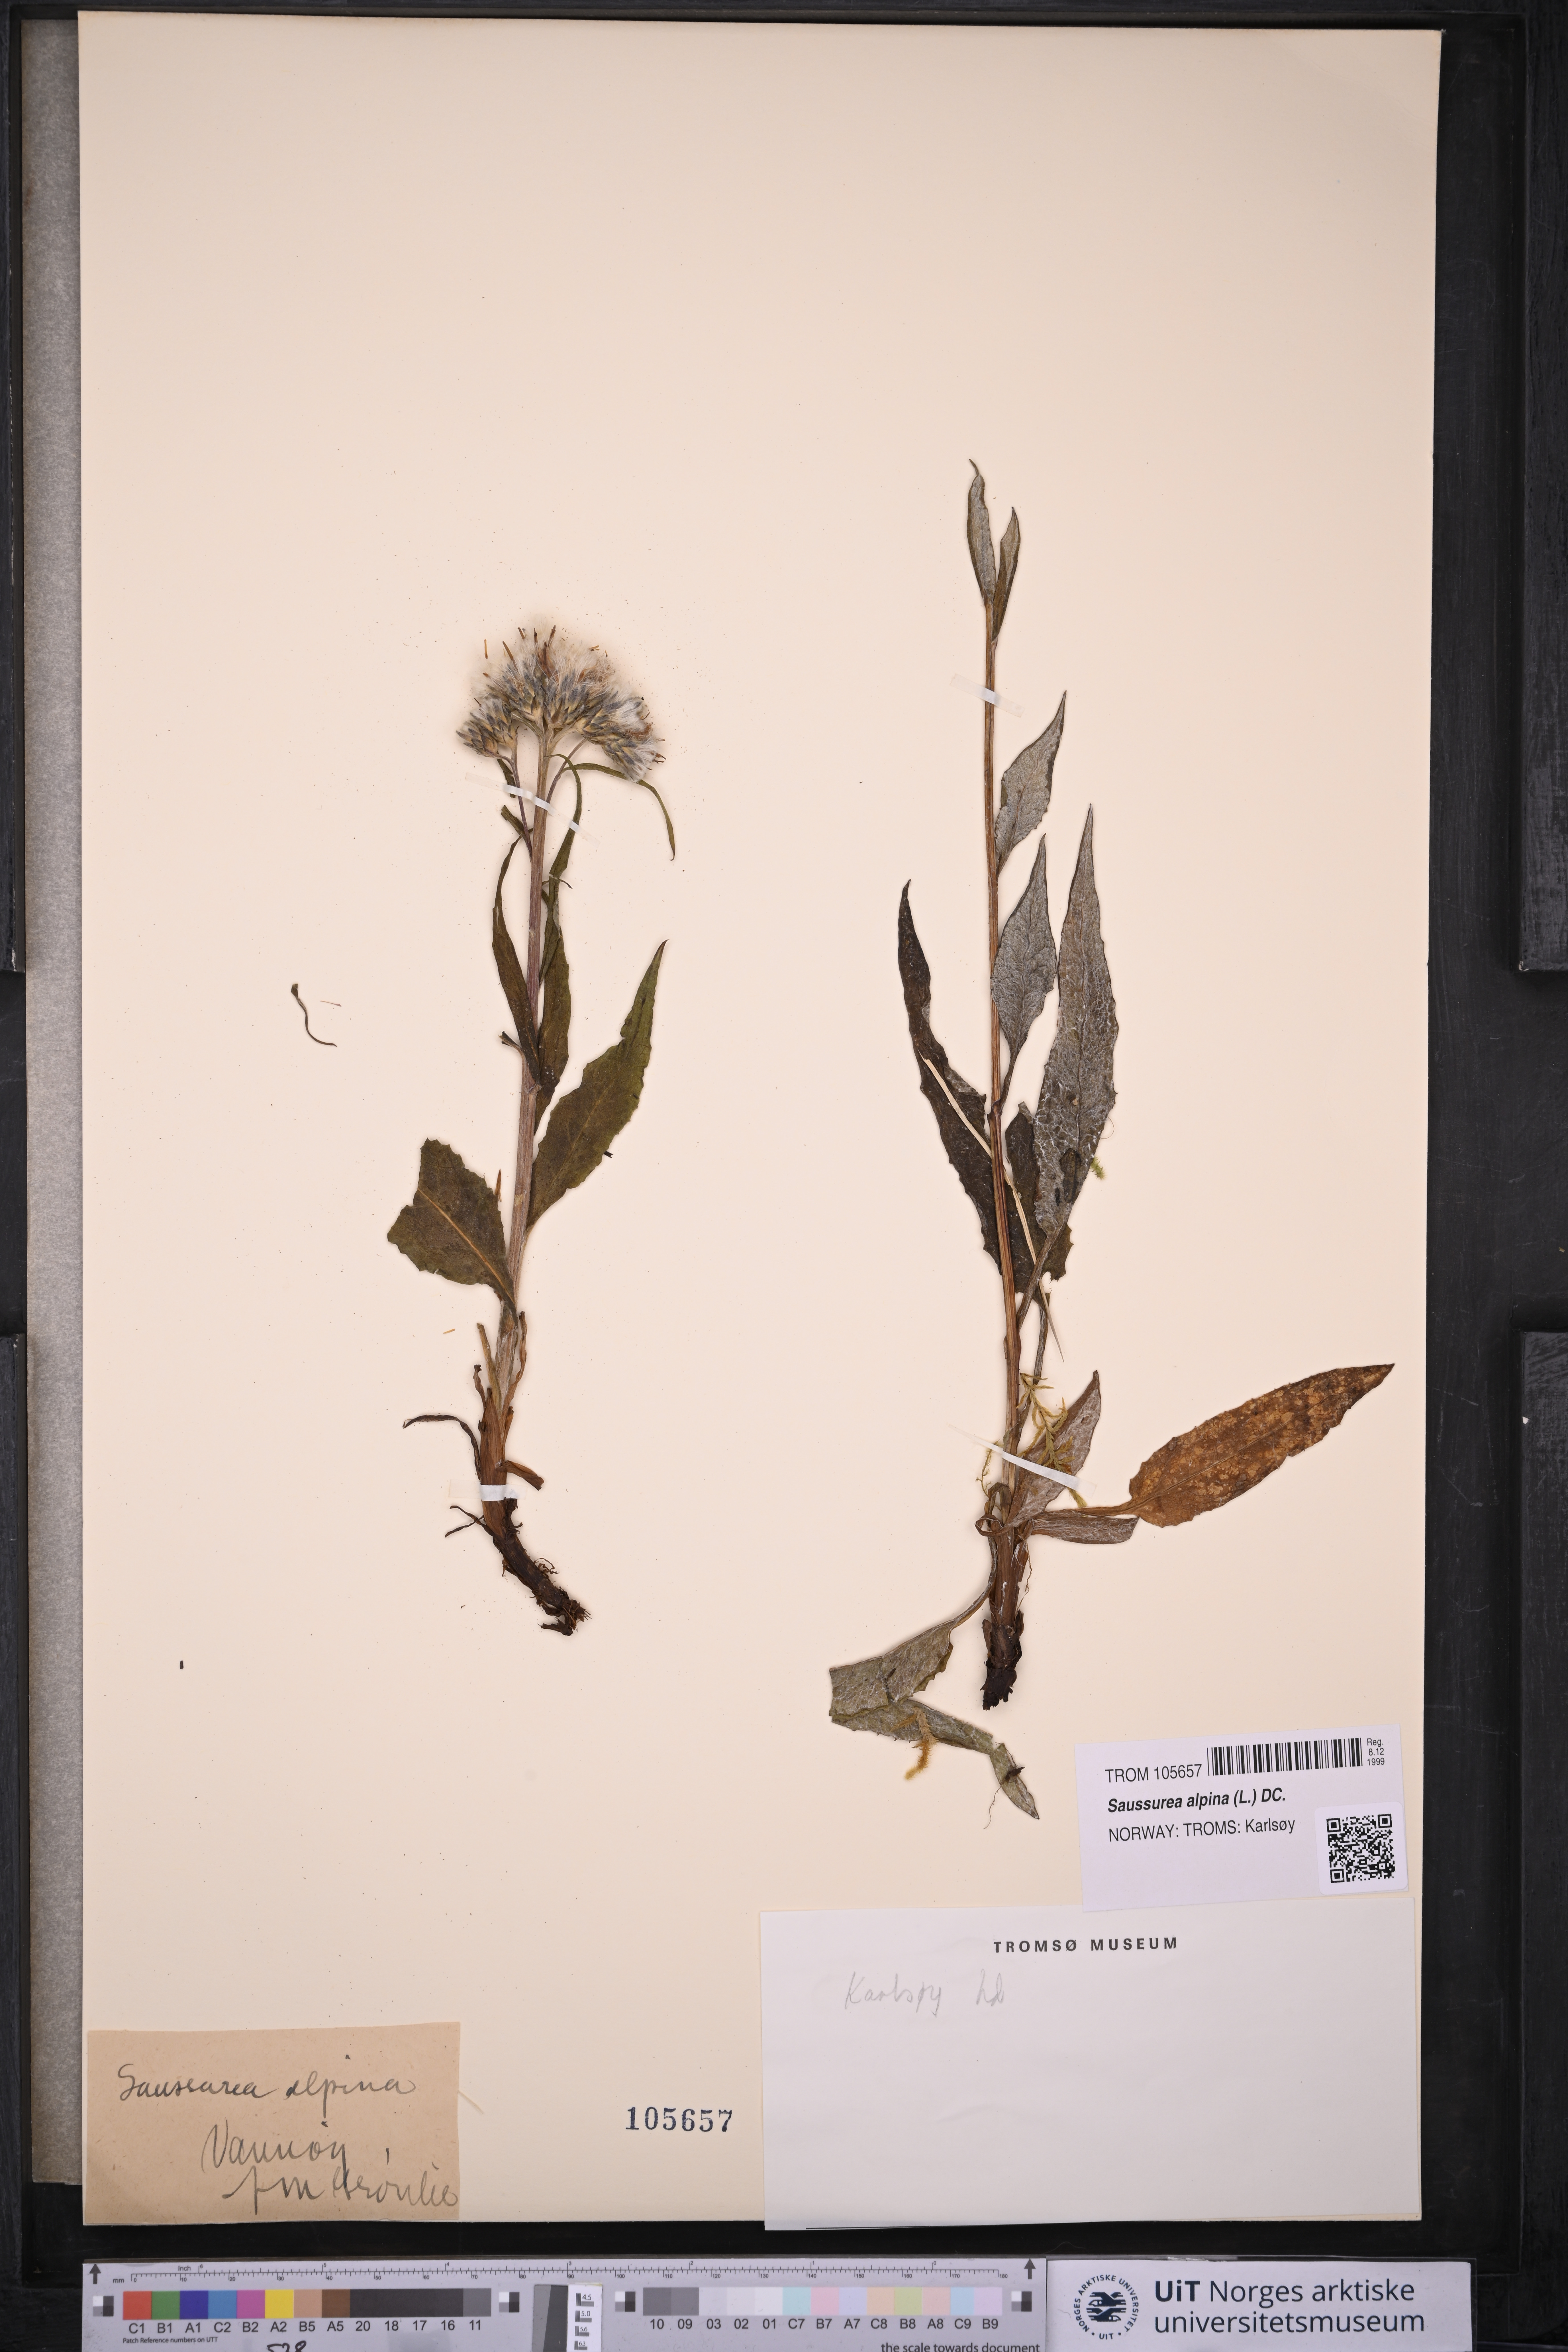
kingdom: Plantae
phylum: Tracheophyta
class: Magnoliopsida
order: Asterales
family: Asteraceae
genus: Saussurea
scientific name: Saussurea alpina
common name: Alpine saw-wort
